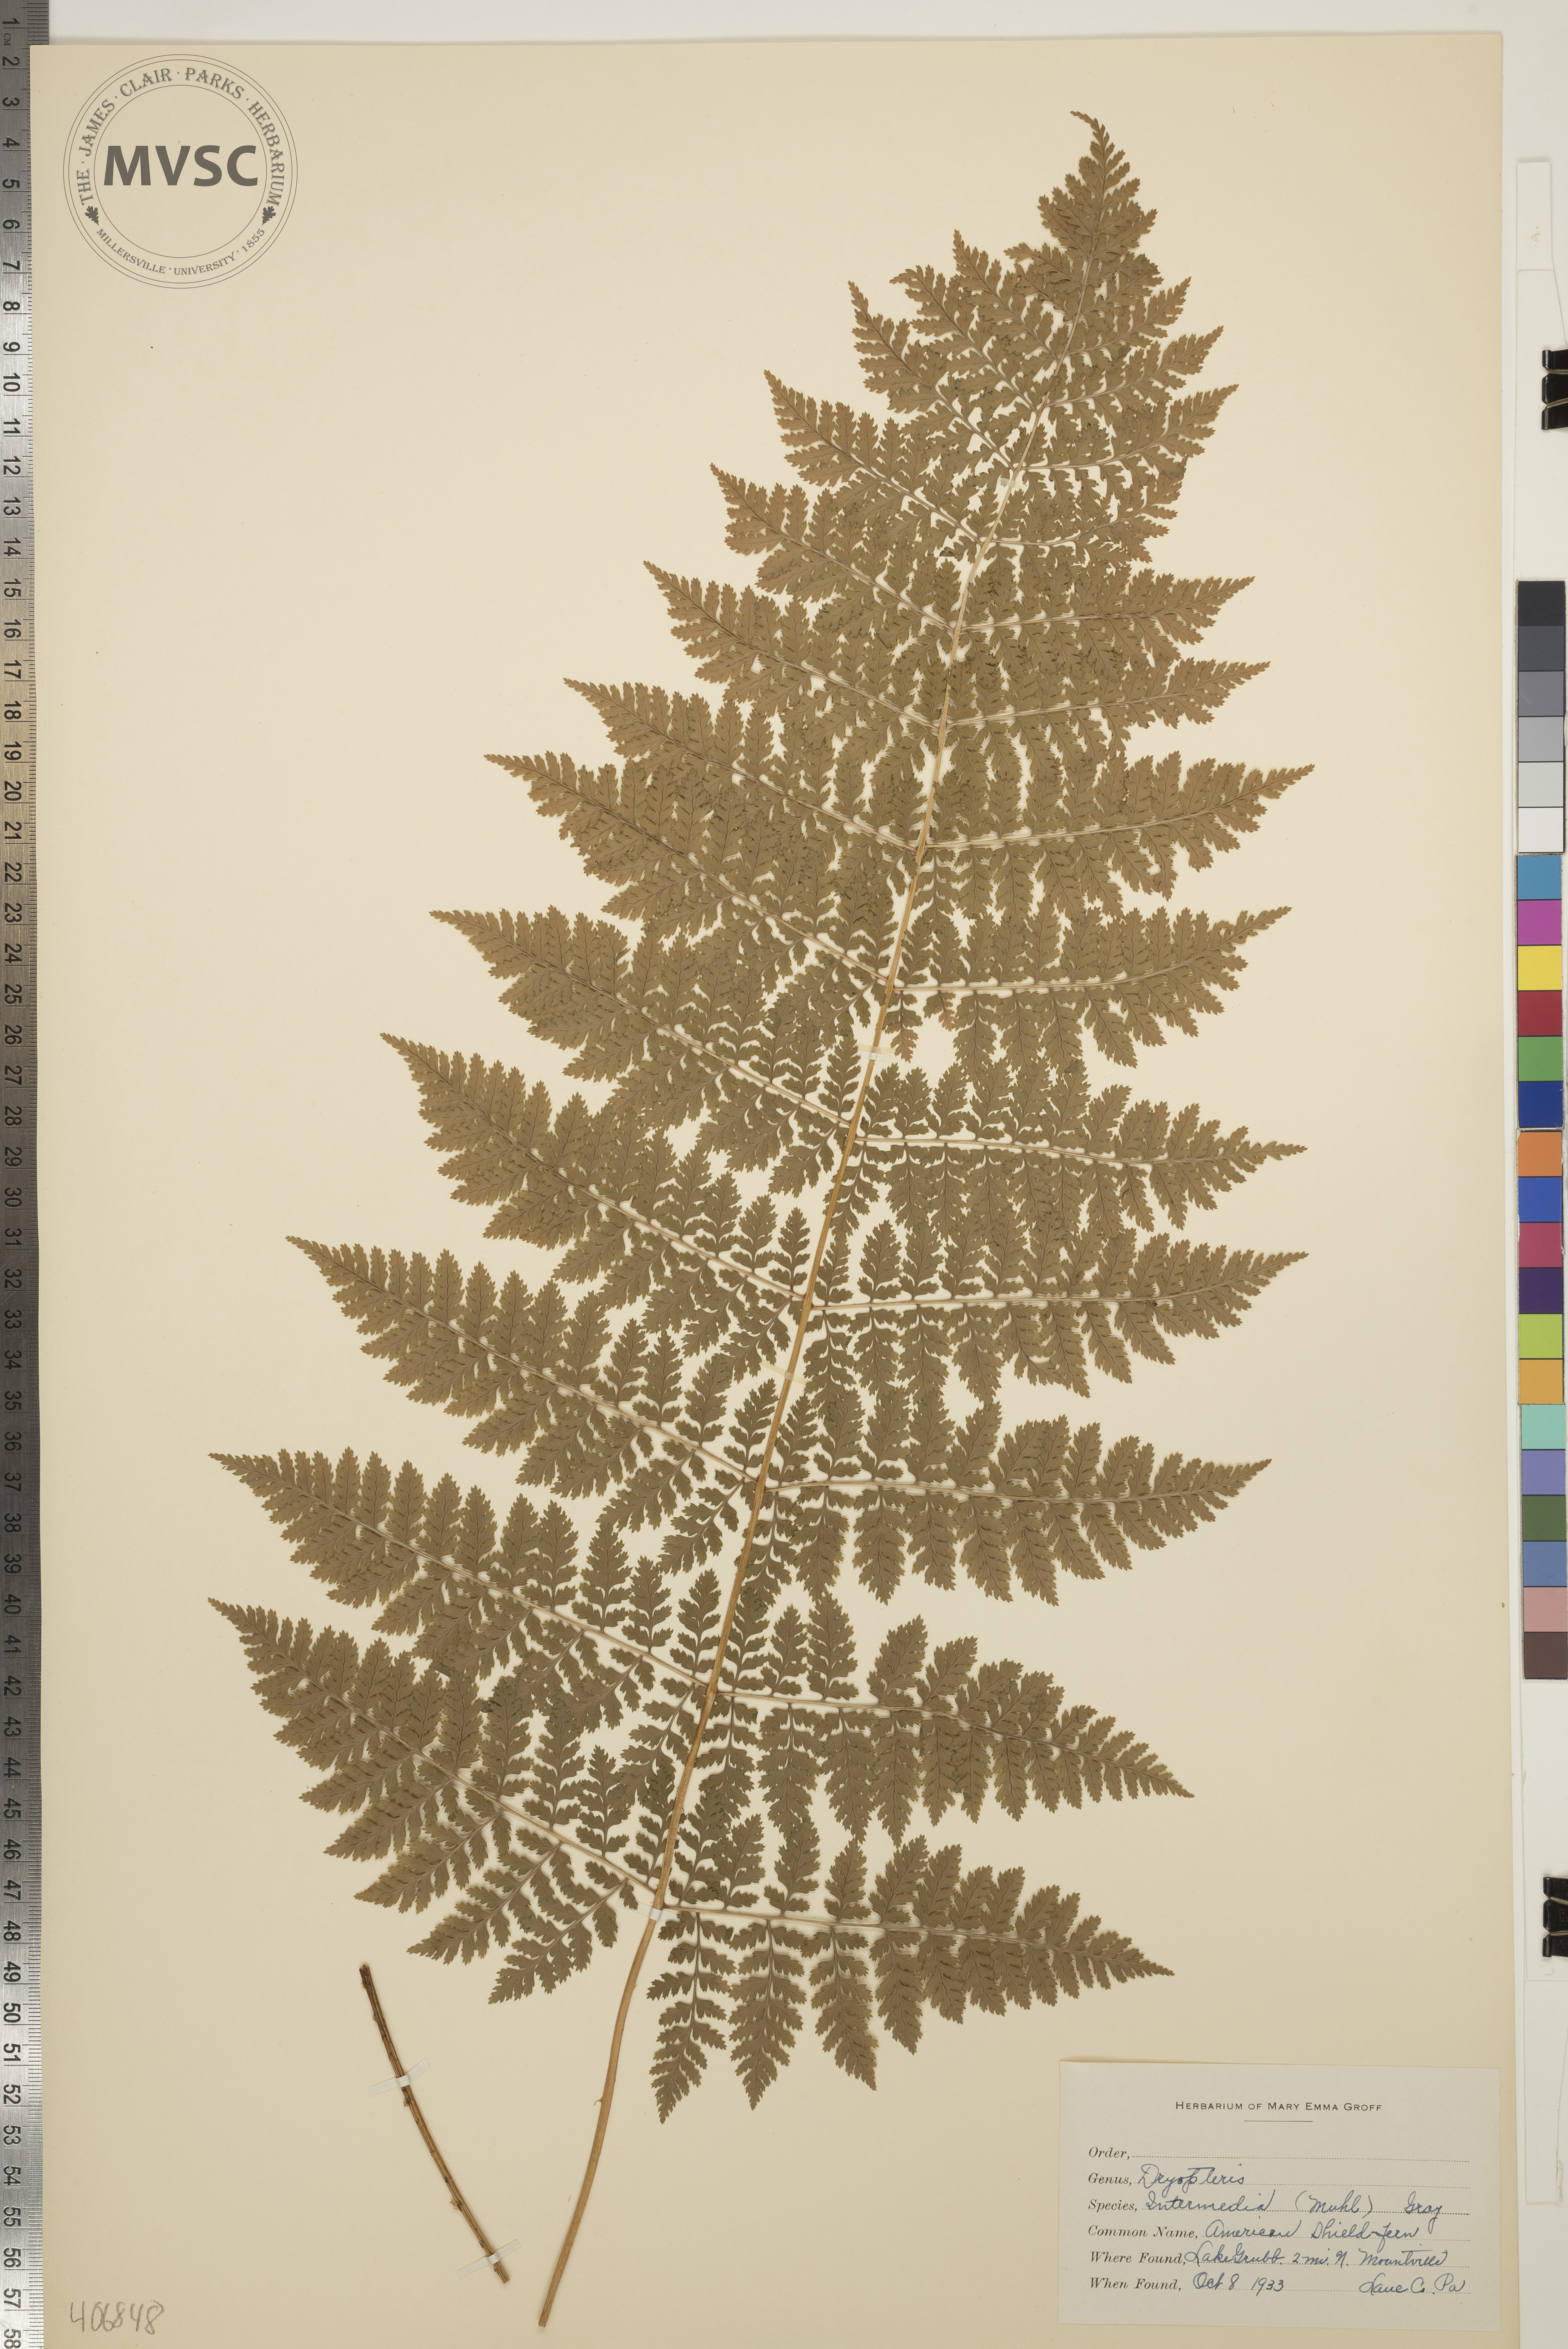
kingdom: Plantae
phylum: Tracheophyta
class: Polypodiopsida
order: Polypodiales
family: Dryopteridaceae
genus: Dryopteris
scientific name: Dryopteris intermedia
